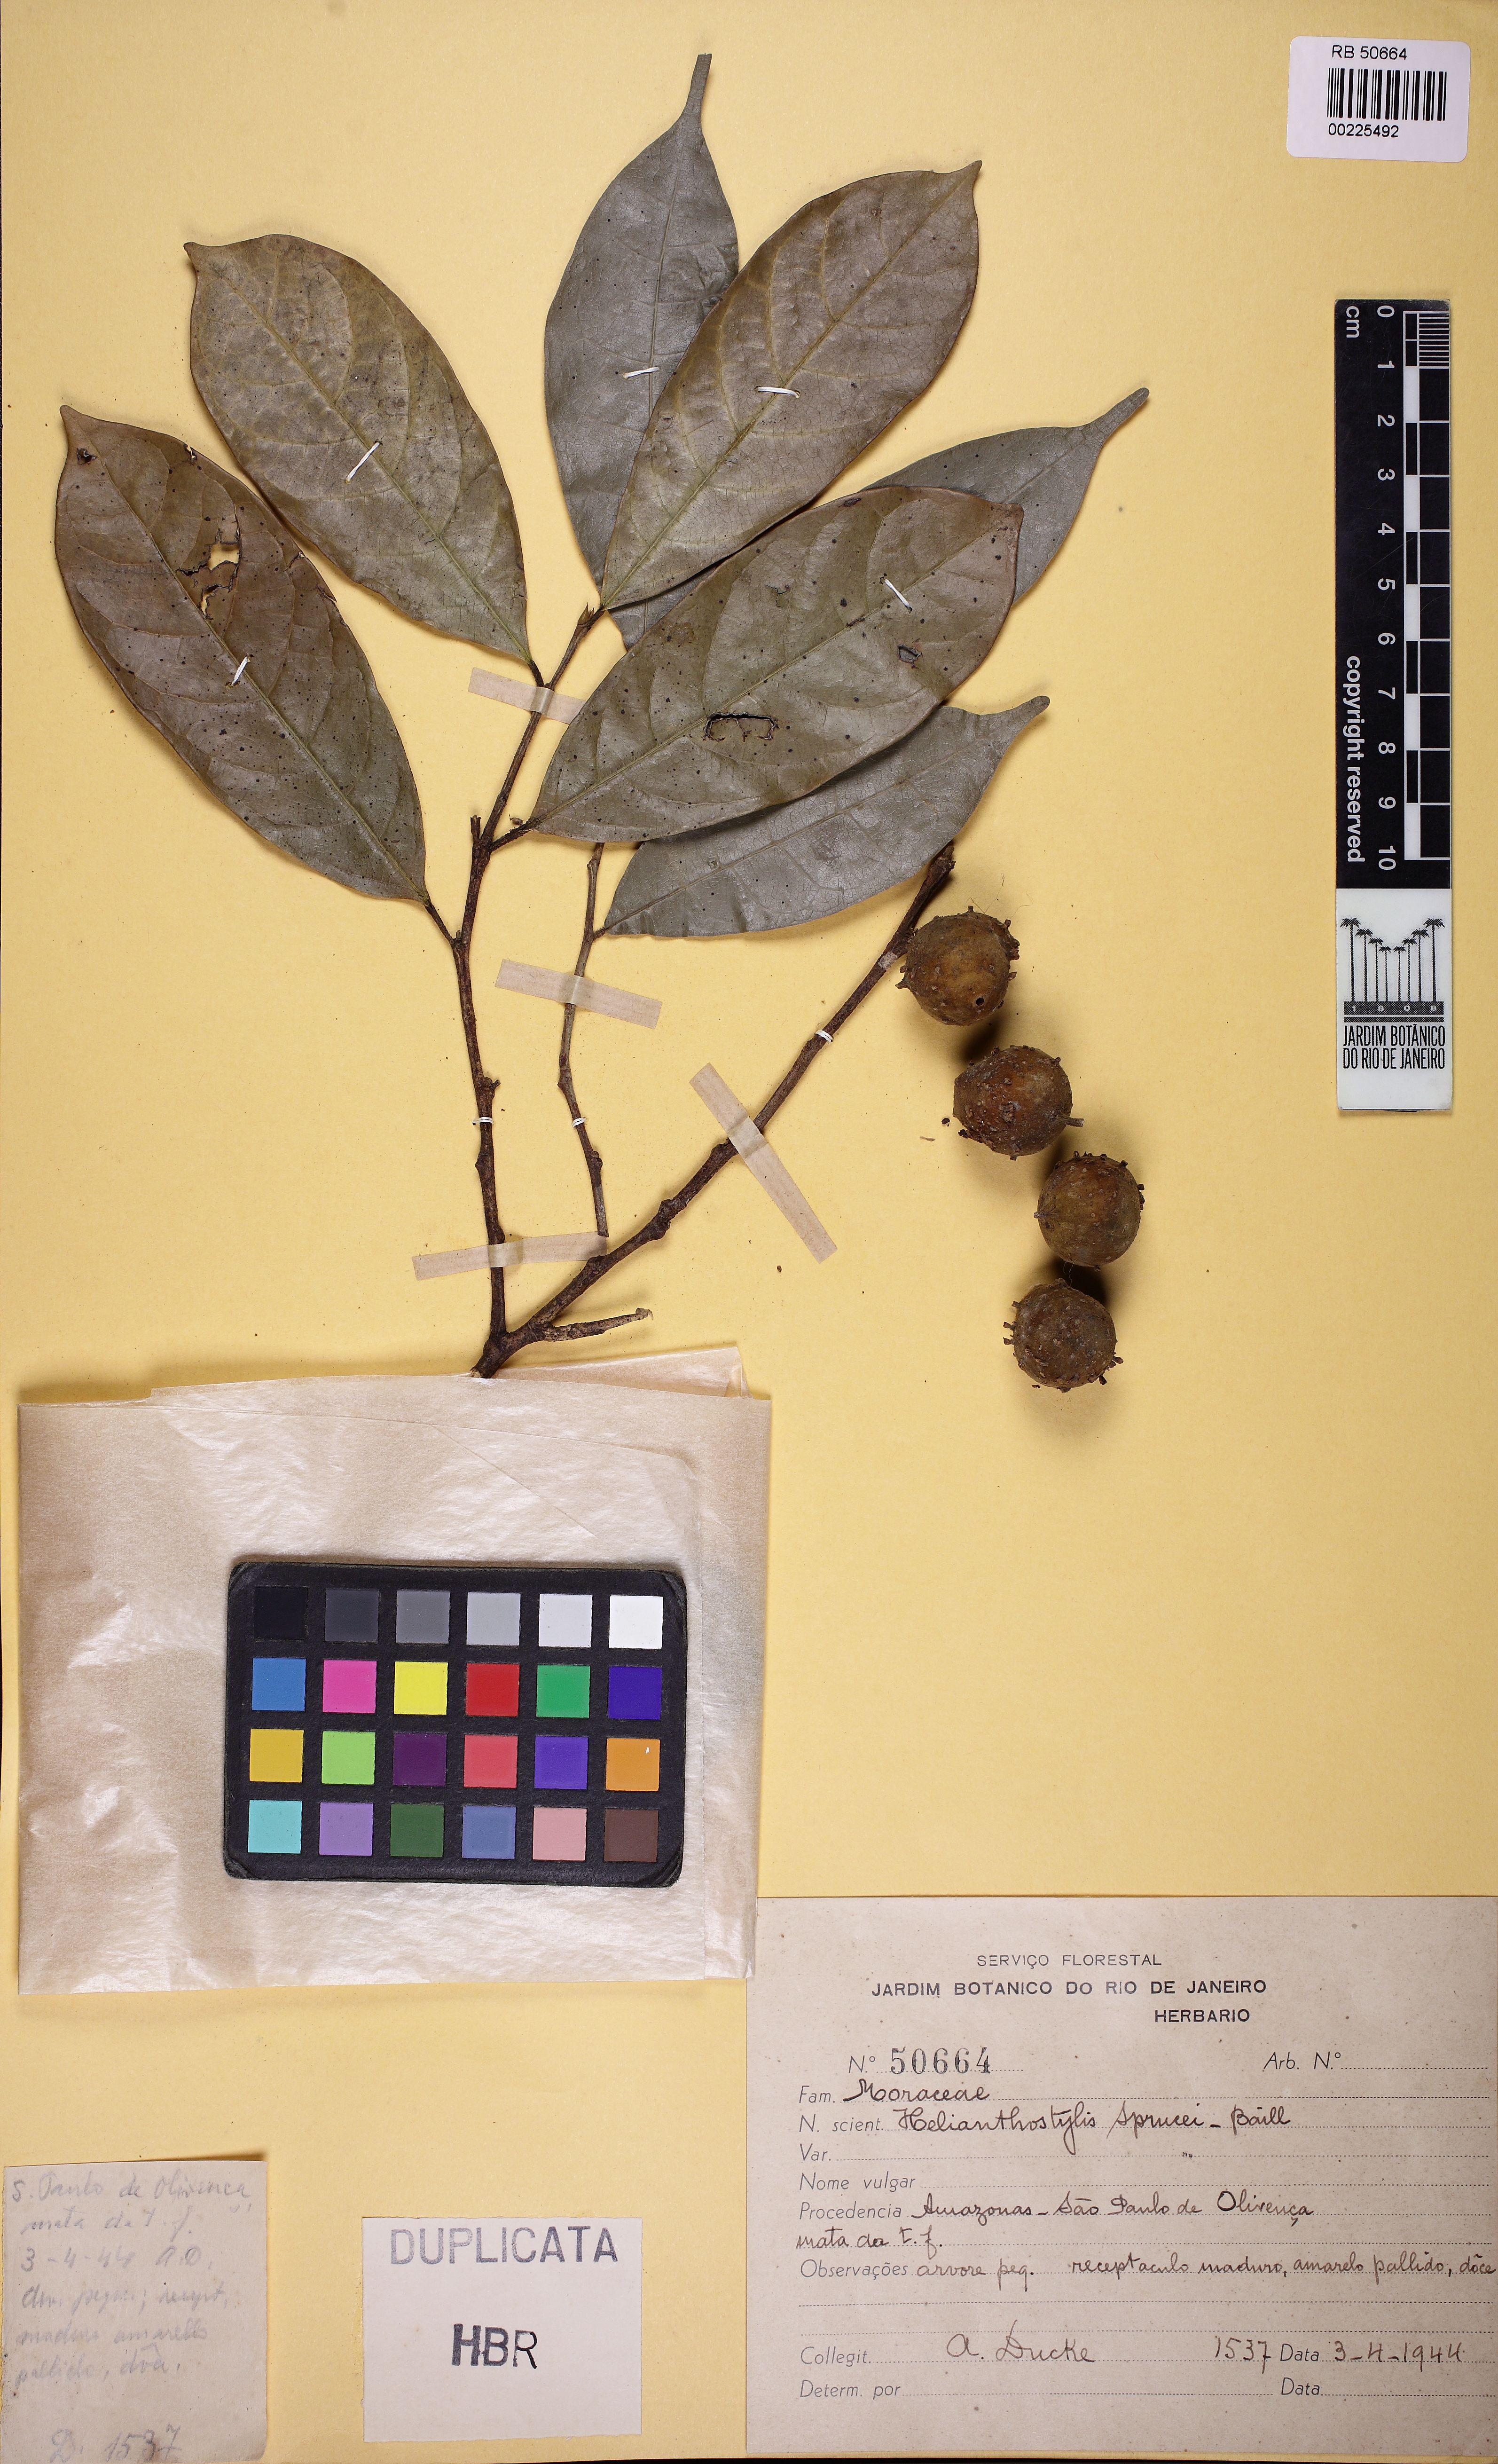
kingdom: Plantae
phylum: Tracheophyta
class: Magnoliopsida
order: Rosales
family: Moraceae
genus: Brosimum
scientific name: Brosimum sprucei
